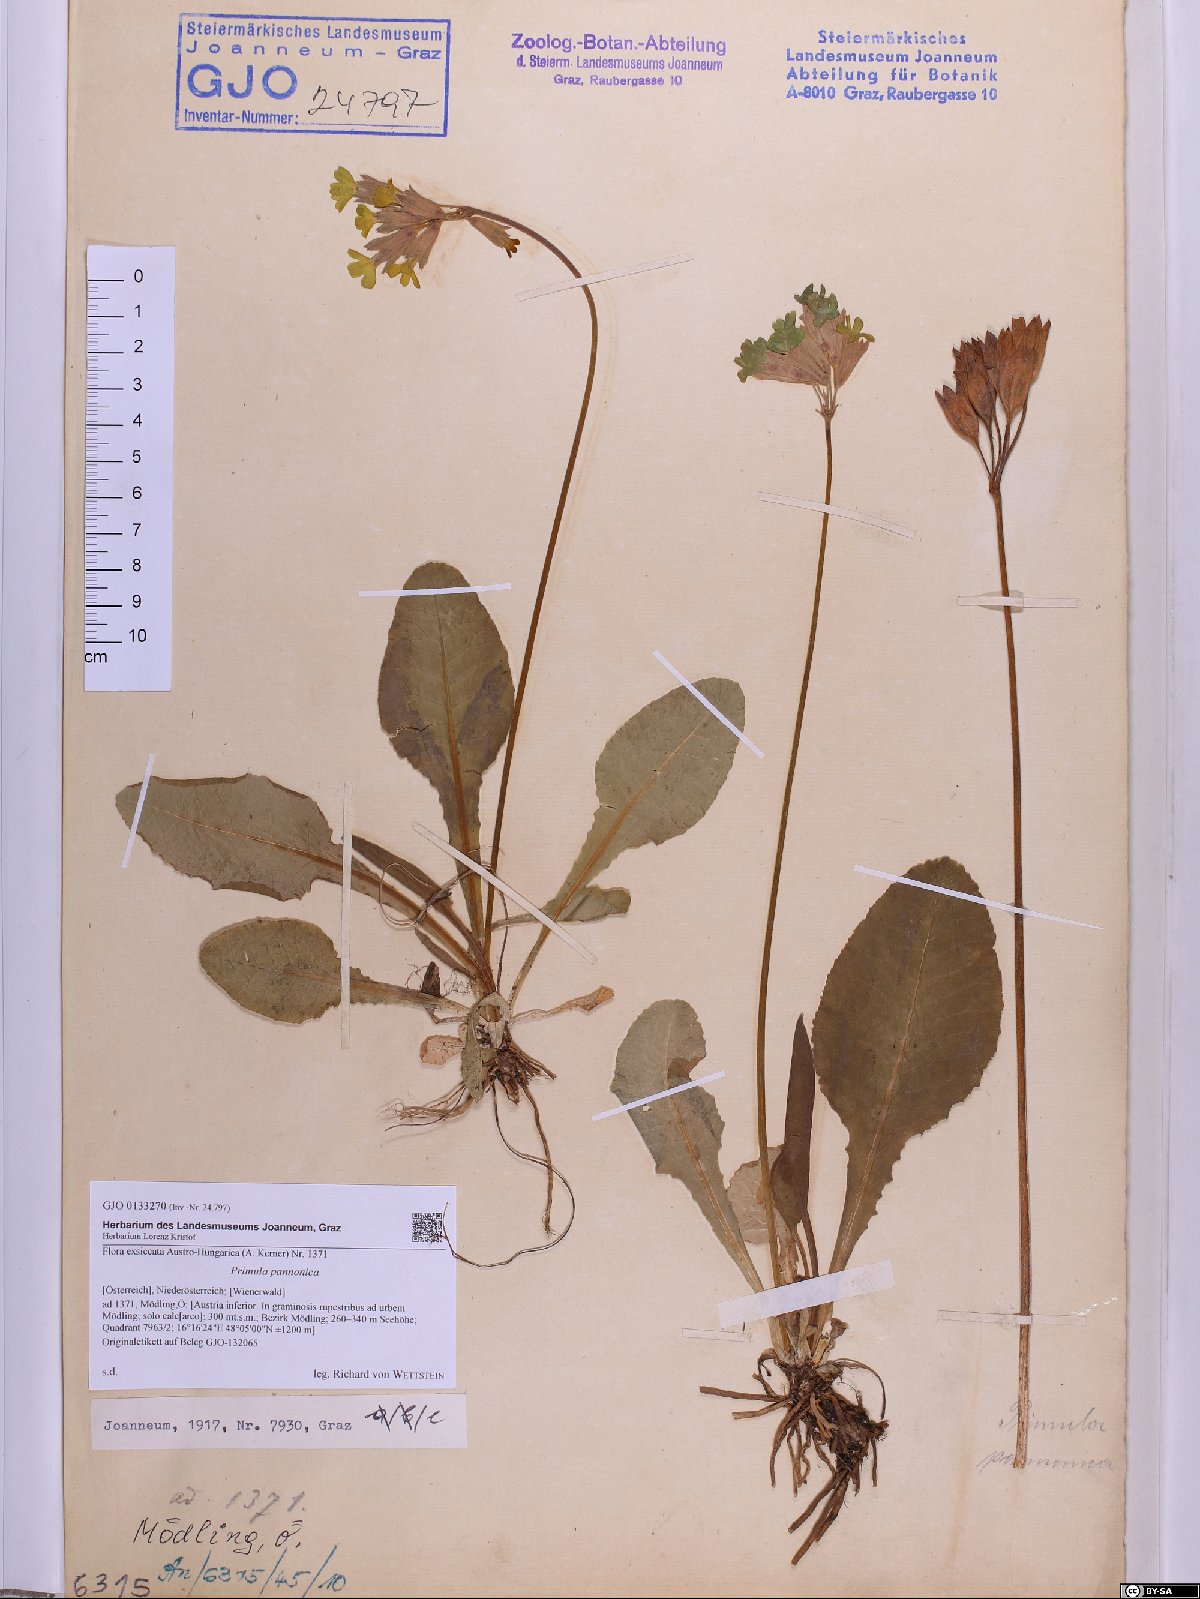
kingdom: Plantae
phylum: Tracheophyta
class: Magnoliopsida
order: Ericales
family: Primulaceae
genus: Primula
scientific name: Primula veris
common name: Cowslip
